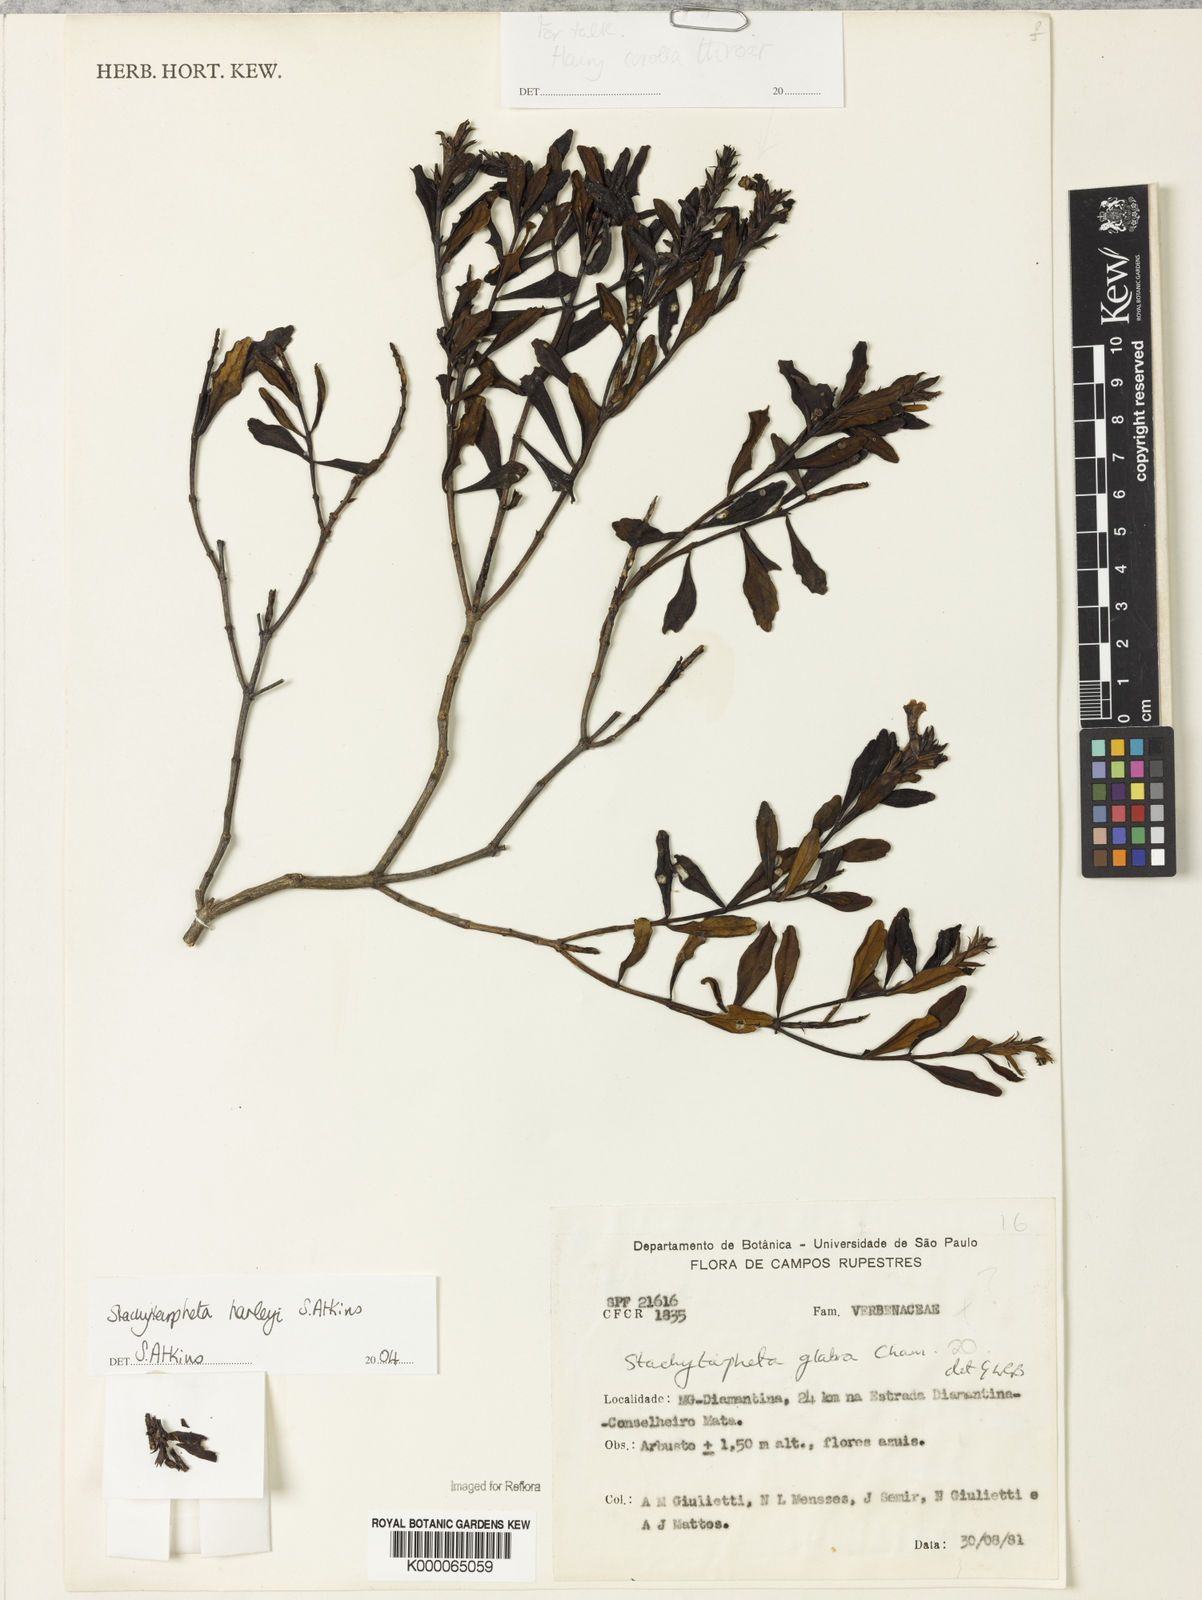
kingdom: Plantae
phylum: Tracheophyta
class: Magnoliopsida
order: Lamiales
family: Verbenaceae
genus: Stachytarpheta
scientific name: Stachytarpheta glabra
